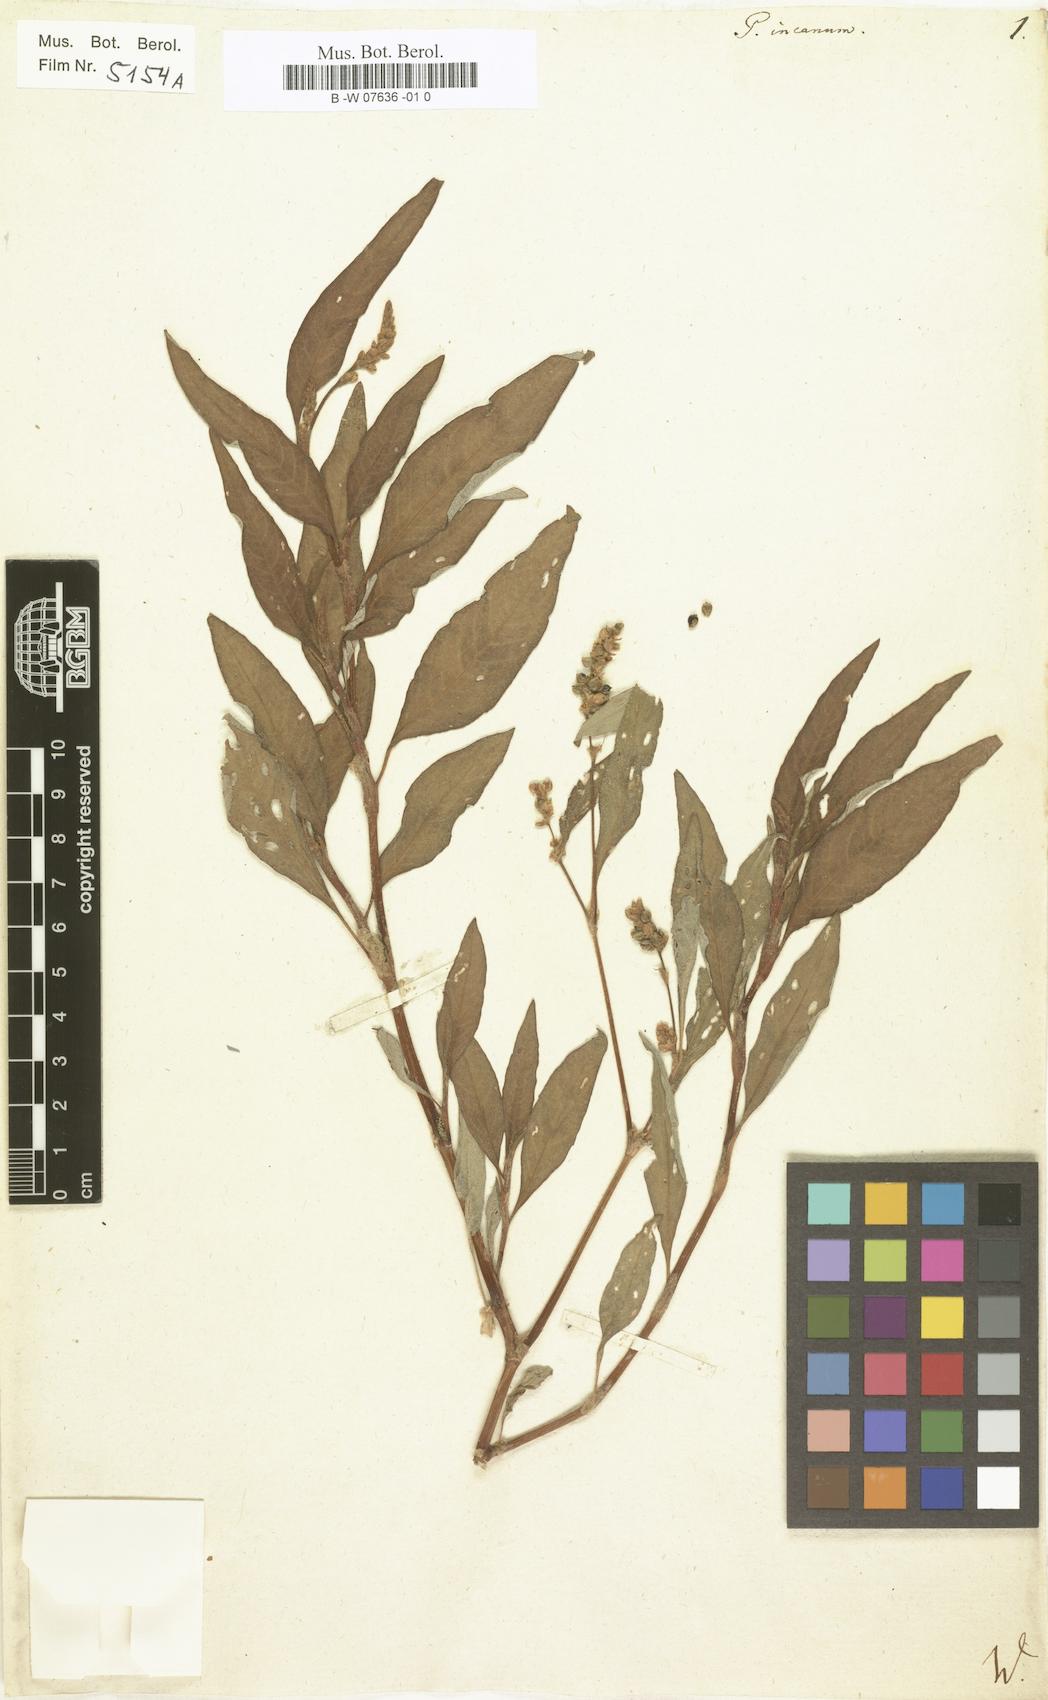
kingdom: Plantae
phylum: Tracheophyta
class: Magnoliopsida
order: Caryophyllales
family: Polygonaceae
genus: Polygonum
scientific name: Polygonum incanum
